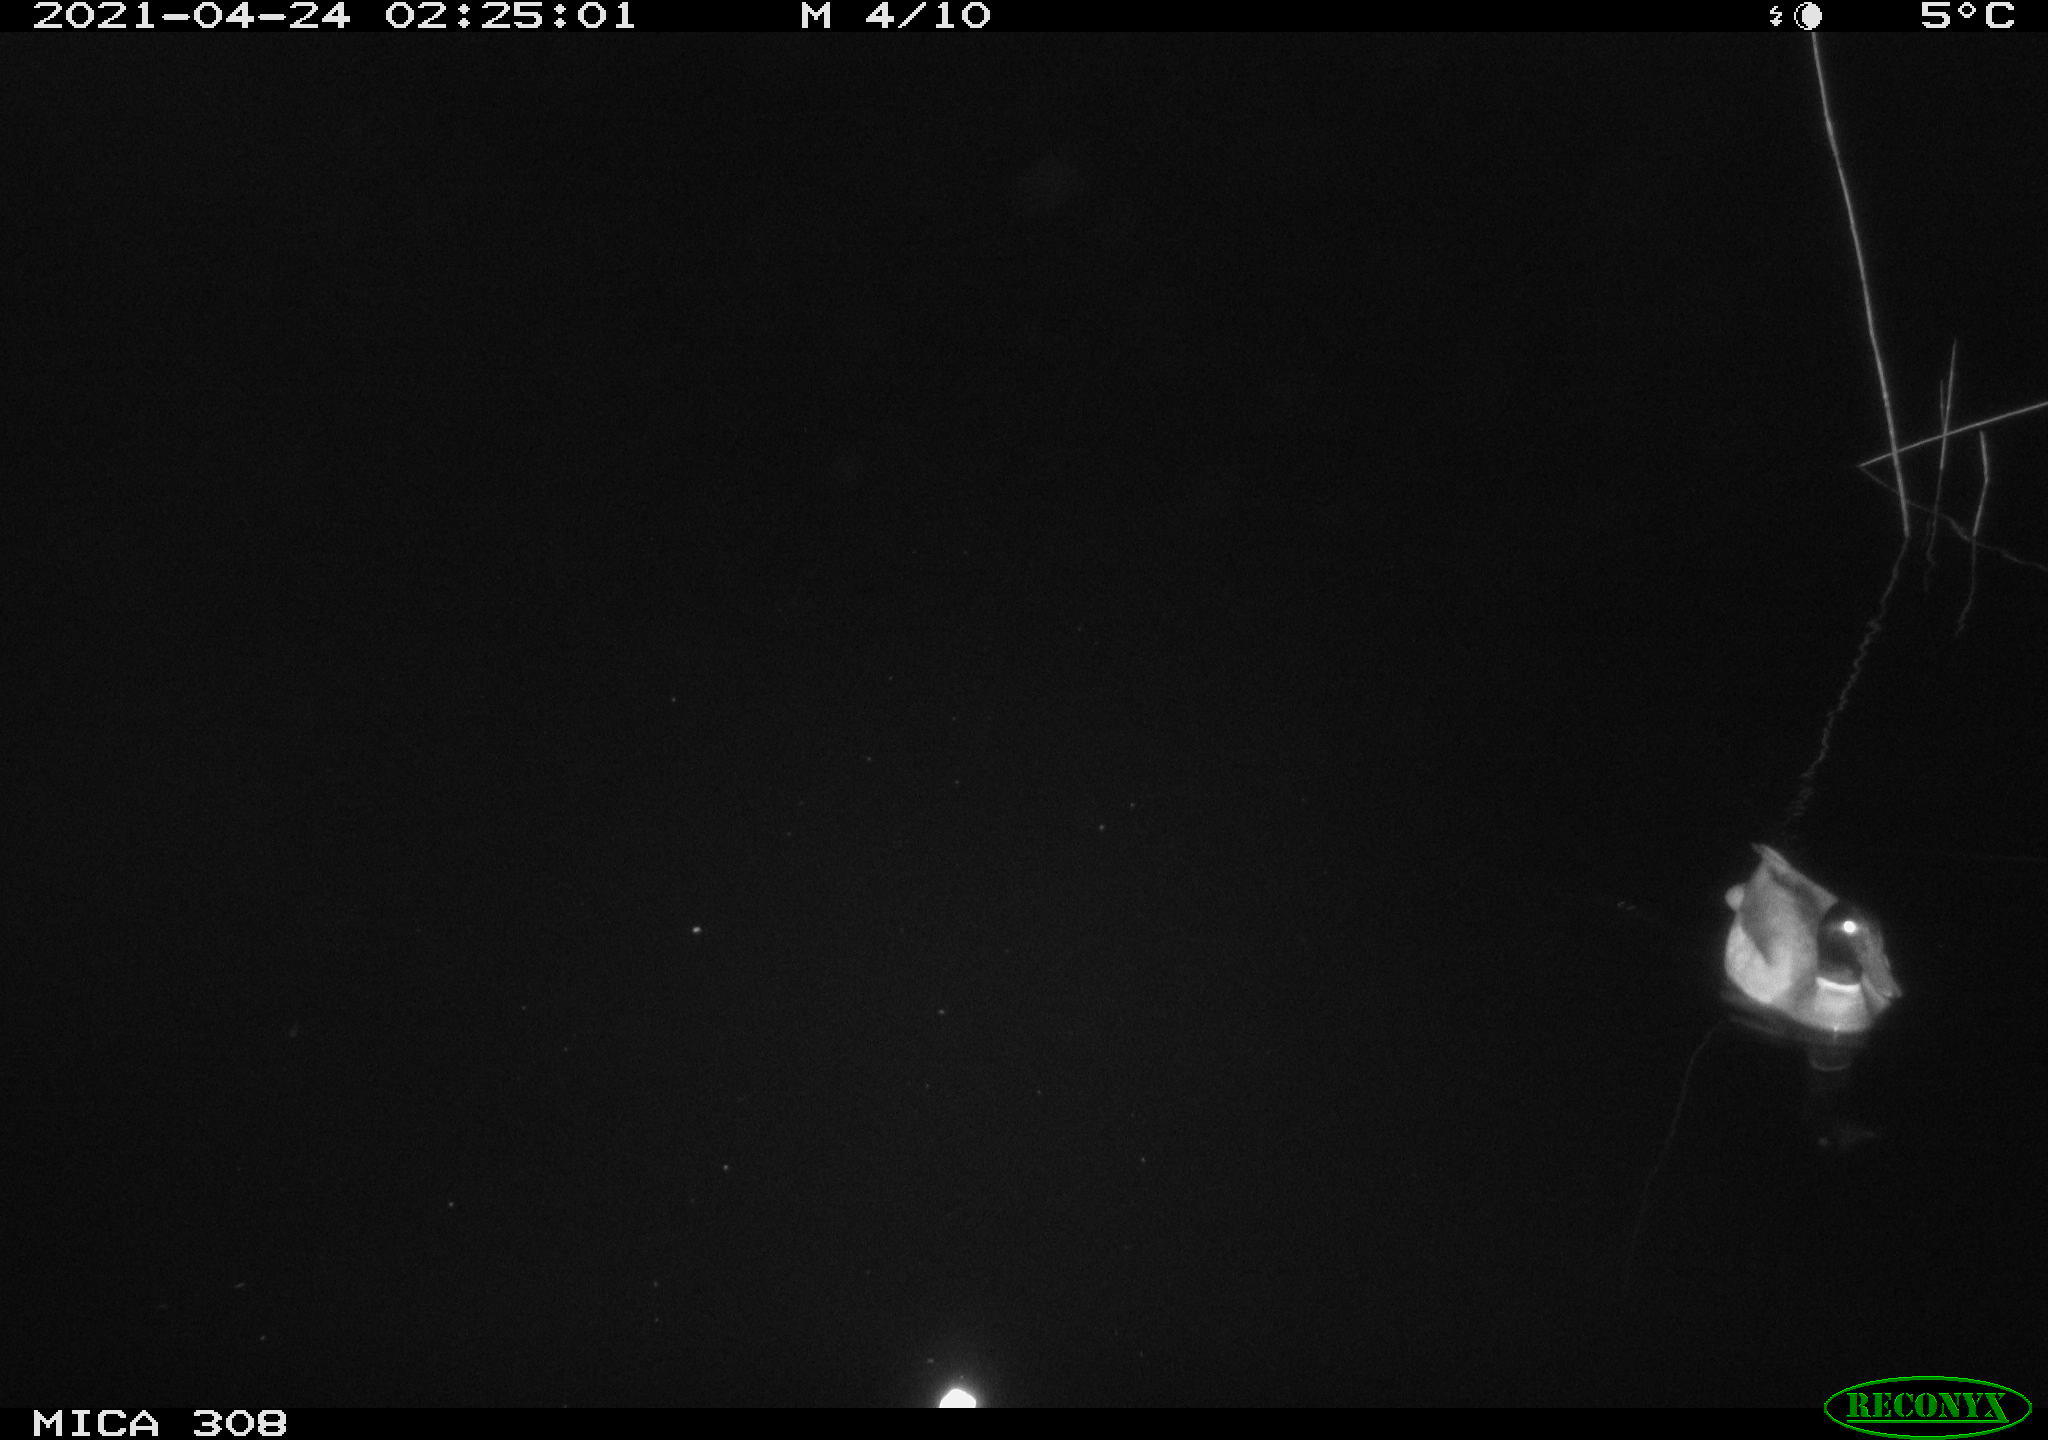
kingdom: Animalia
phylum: Chordata
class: Aves
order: Anseriformes
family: Anatidae
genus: Anas
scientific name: Anas platyrhynchos
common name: Mallard
